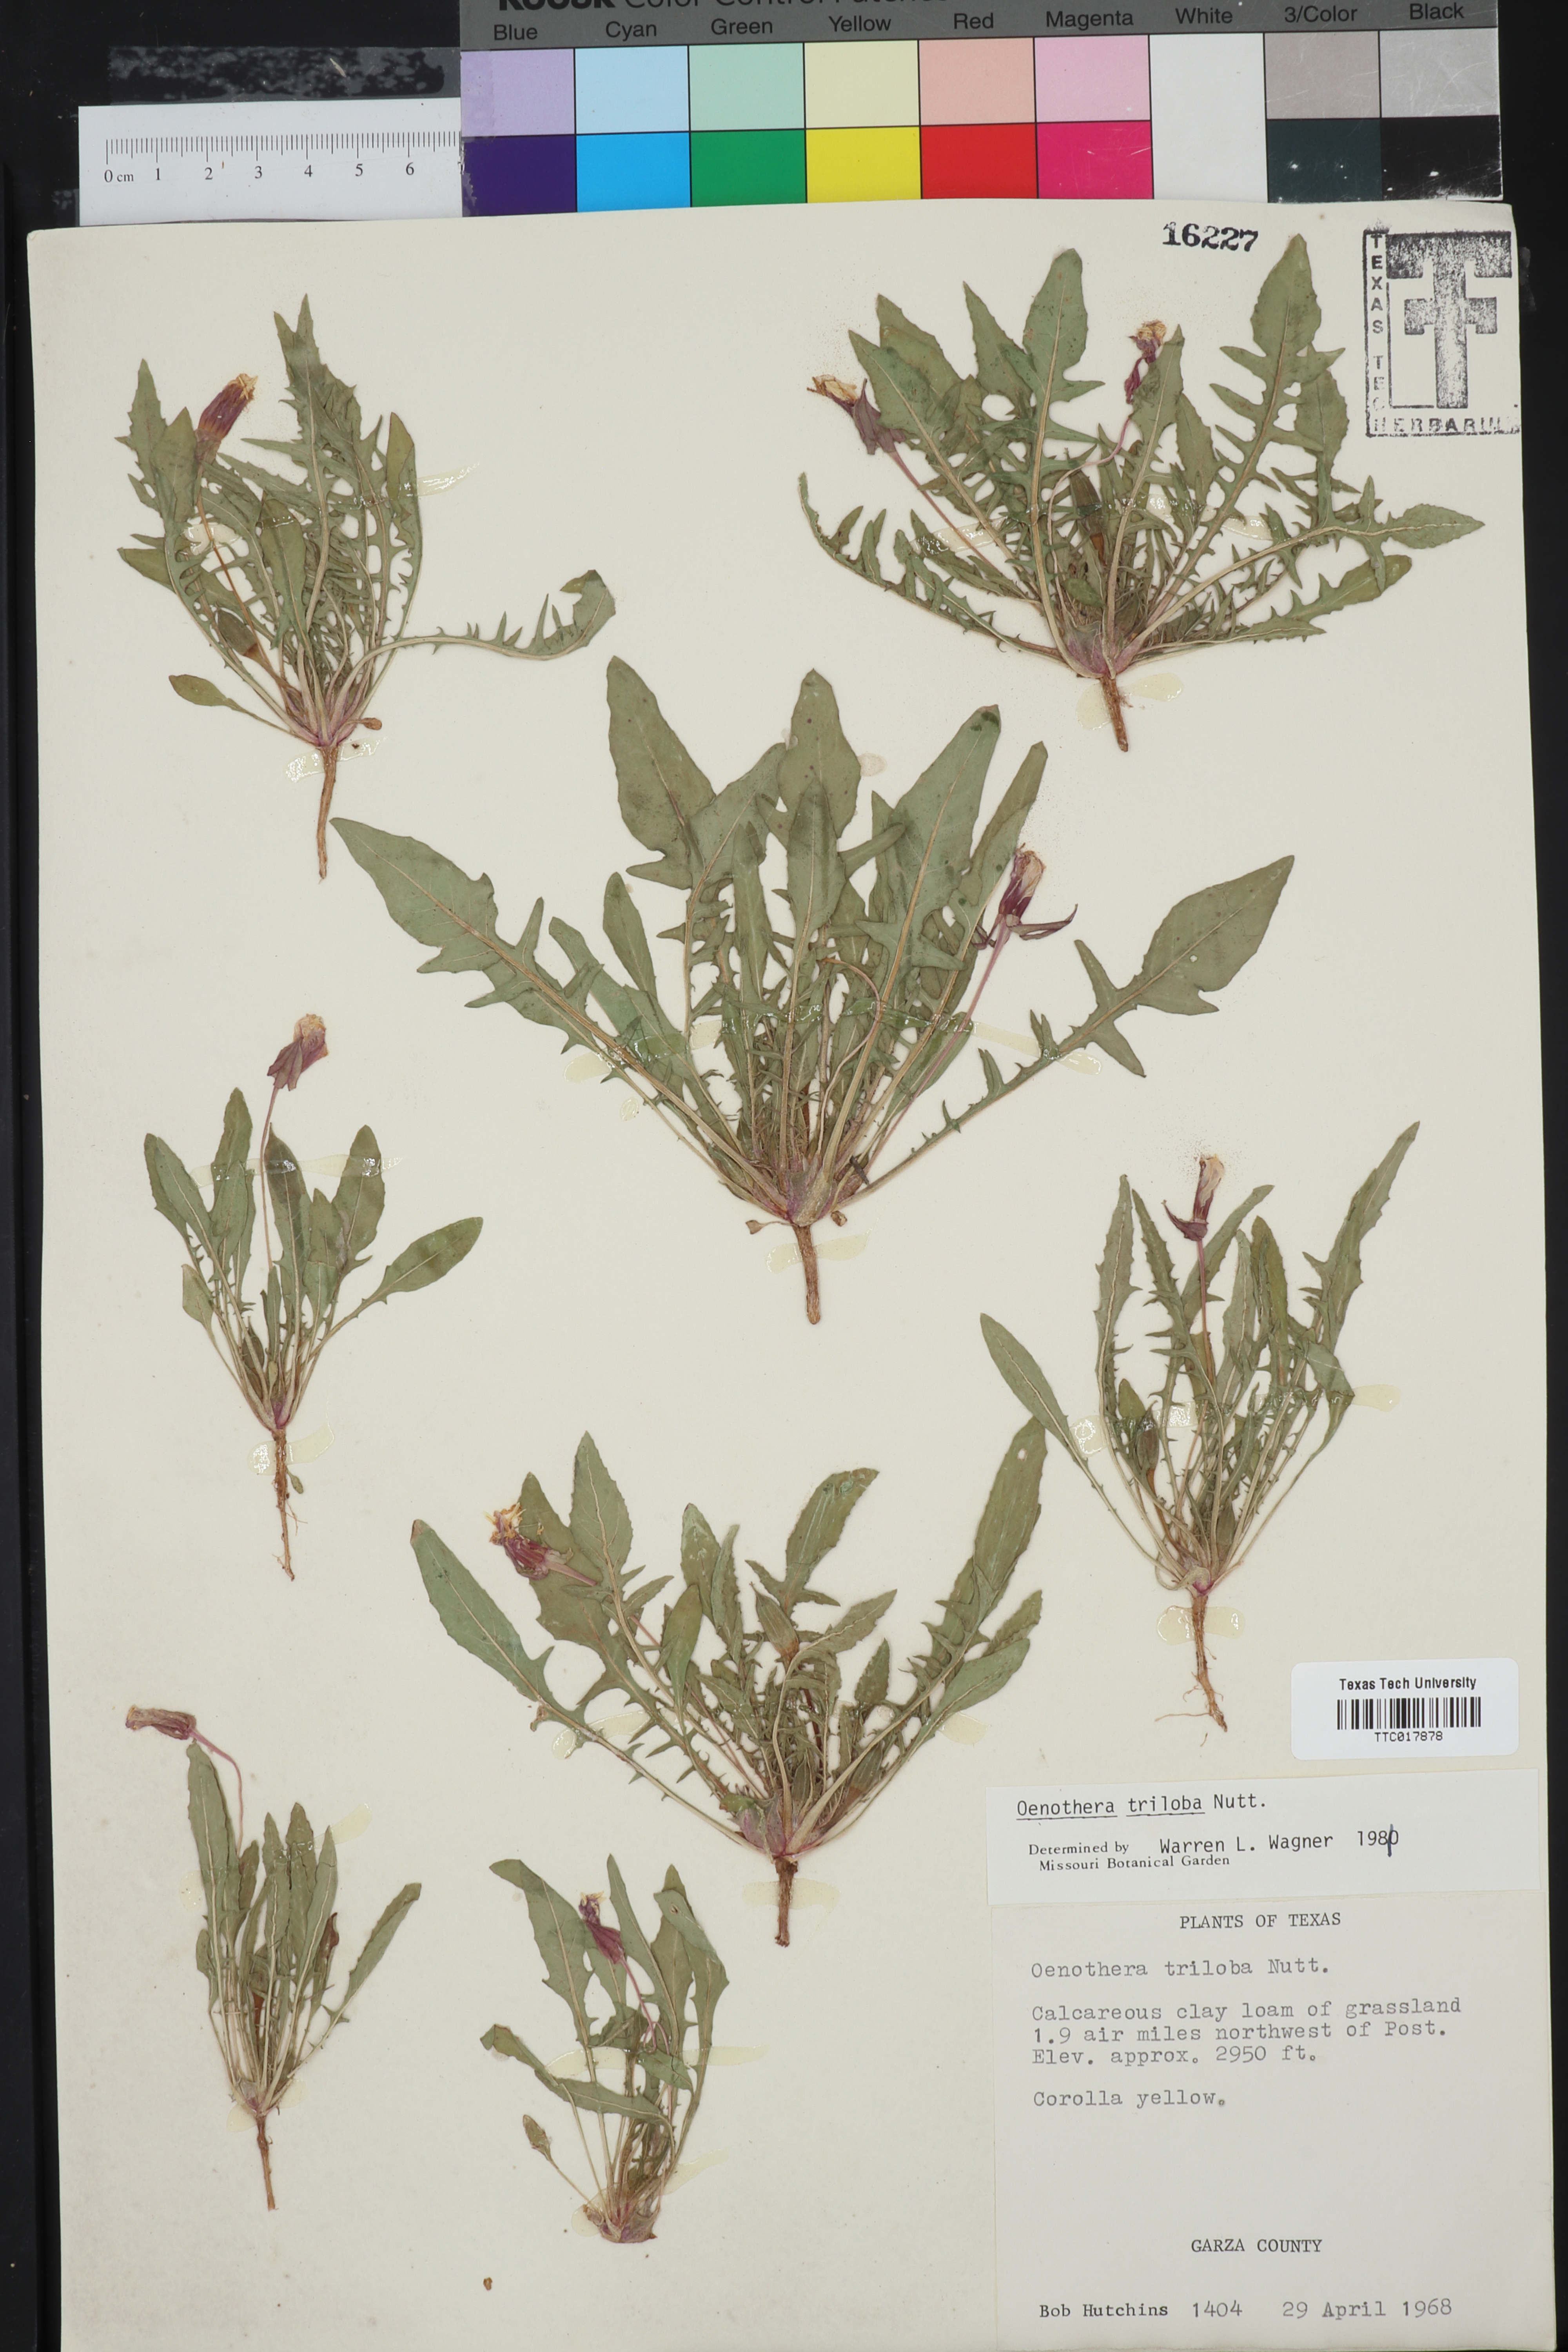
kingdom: Plantae
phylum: Tracheophyta
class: Magnoliopsida
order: Myrtales
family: Onagraceae
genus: Oenothera
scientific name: Oenothera triloba
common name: Sessile evening-primrose
